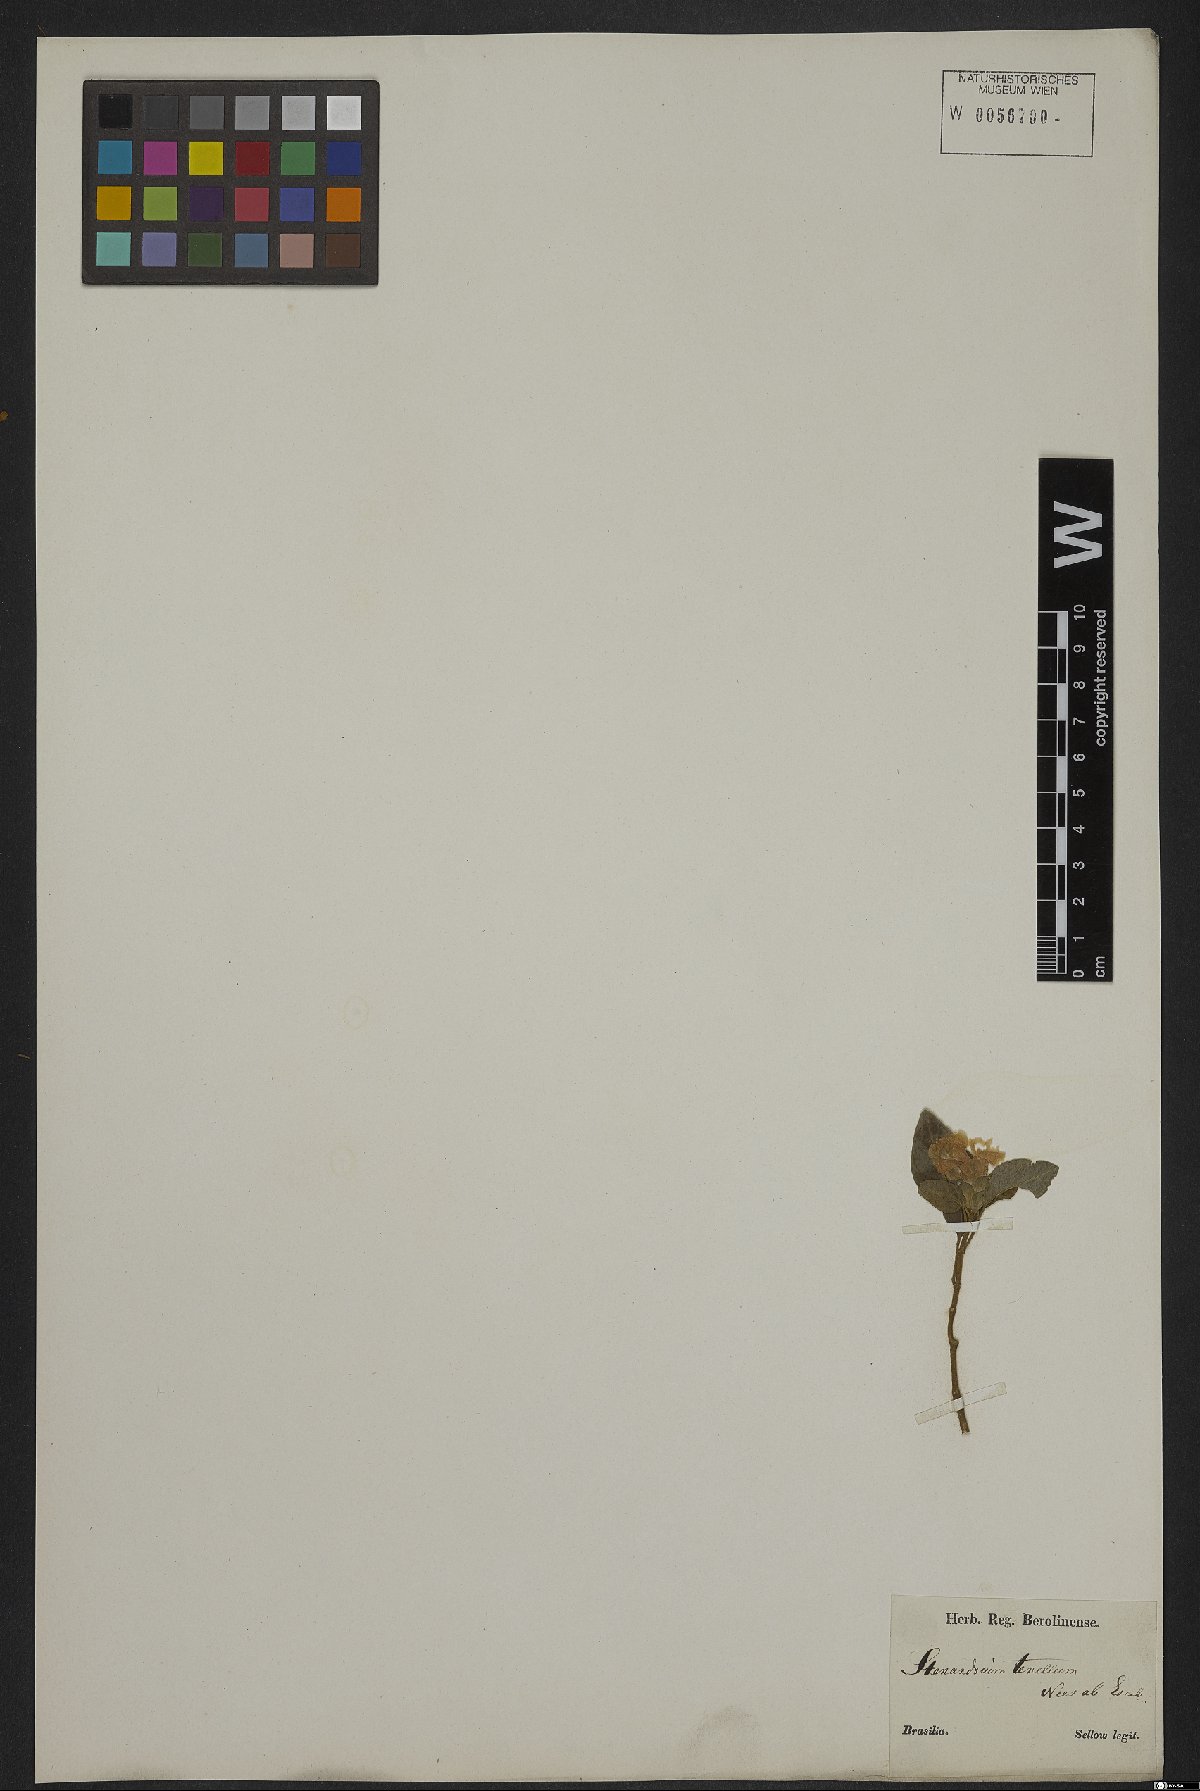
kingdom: Plantae
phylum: Tracheophyta
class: Magnoliopsida
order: Lamiales
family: Acanthaceae
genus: Stenandrium
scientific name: Stenandrium tenellum
